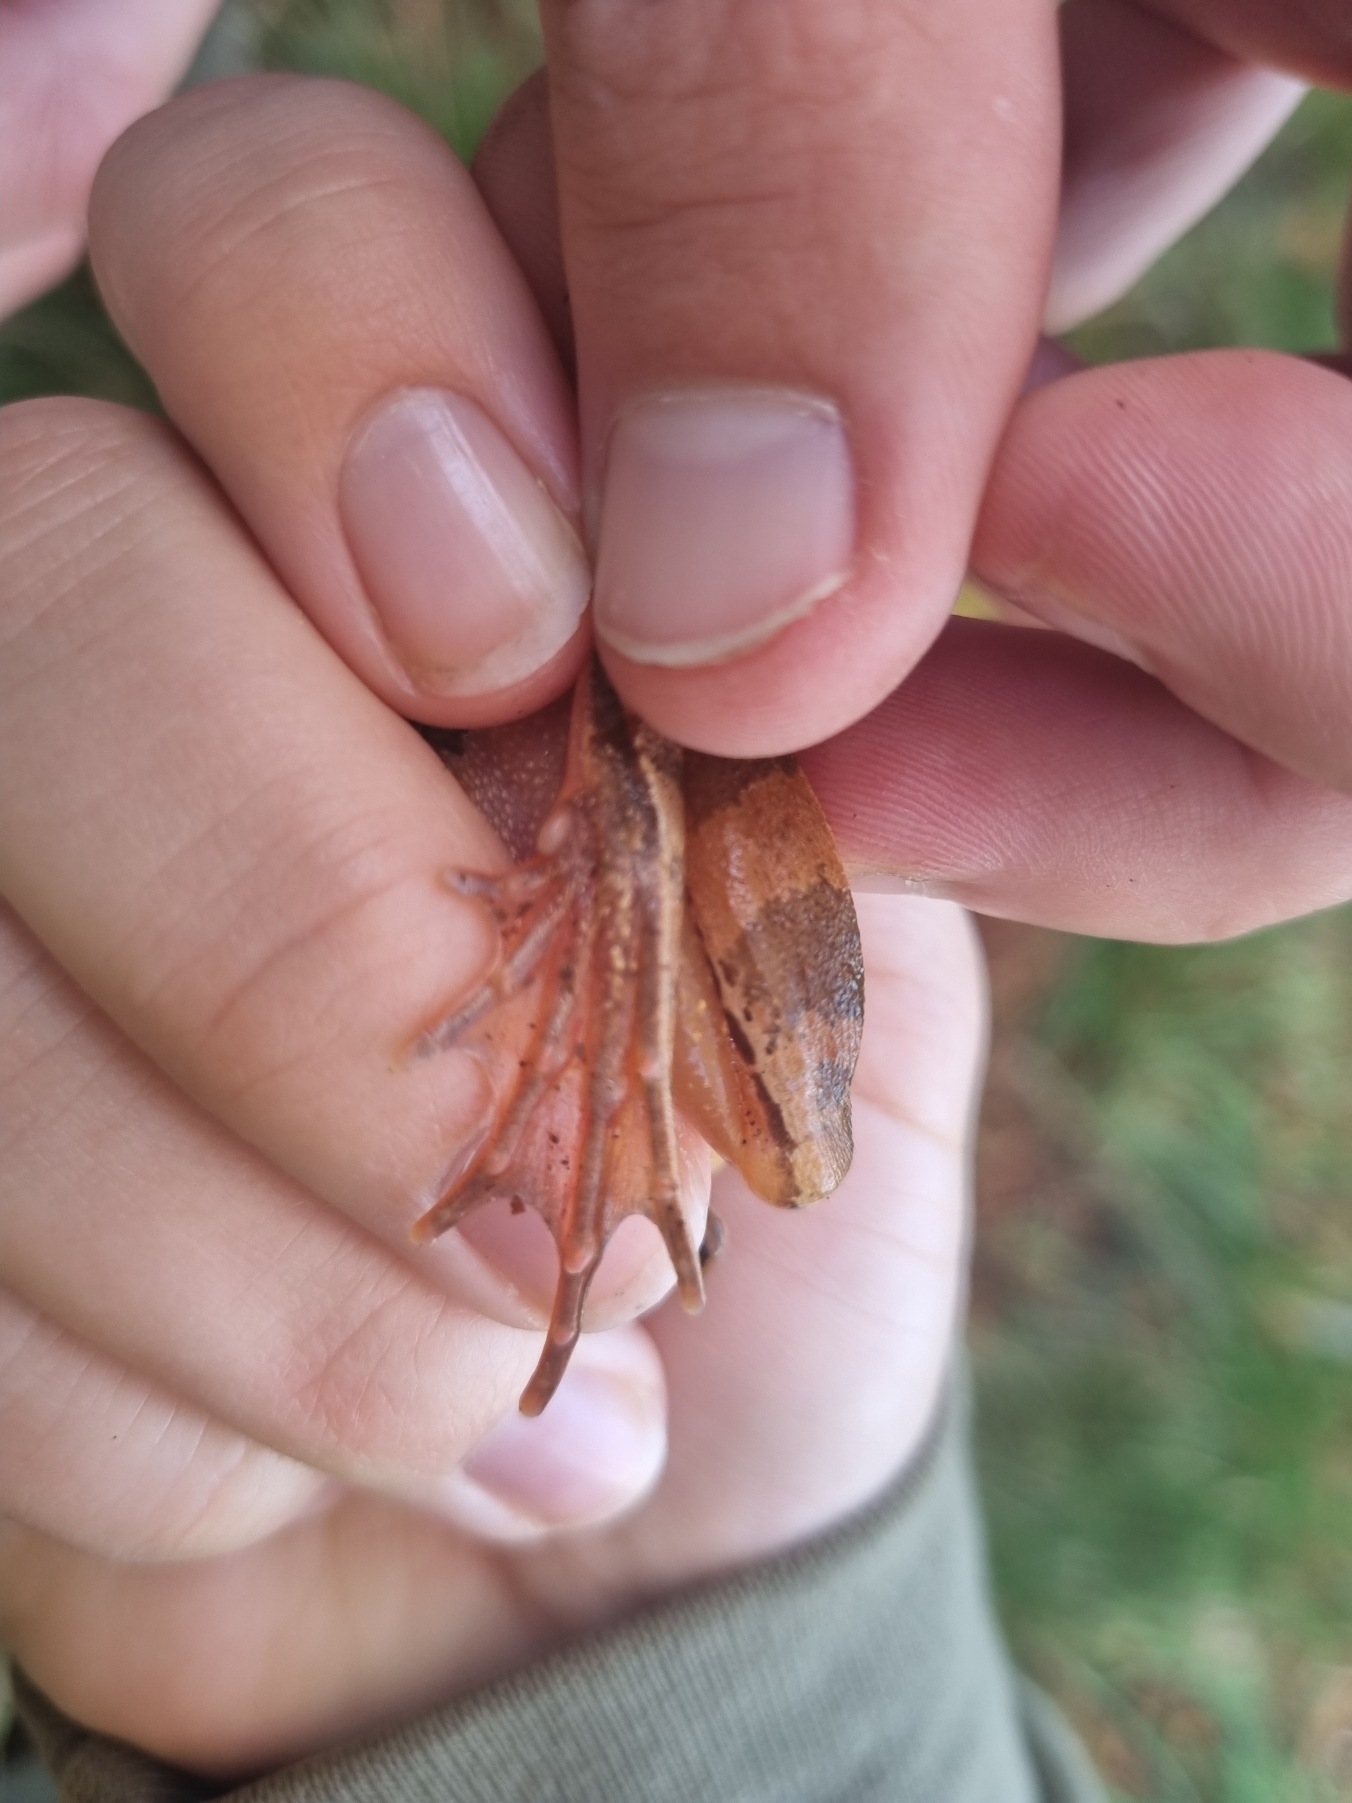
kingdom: Animalia
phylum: Chordata
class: Amphibia
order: Anura
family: Ranidae
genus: Rana
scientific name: Rana dalmatina
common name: Springfrø
